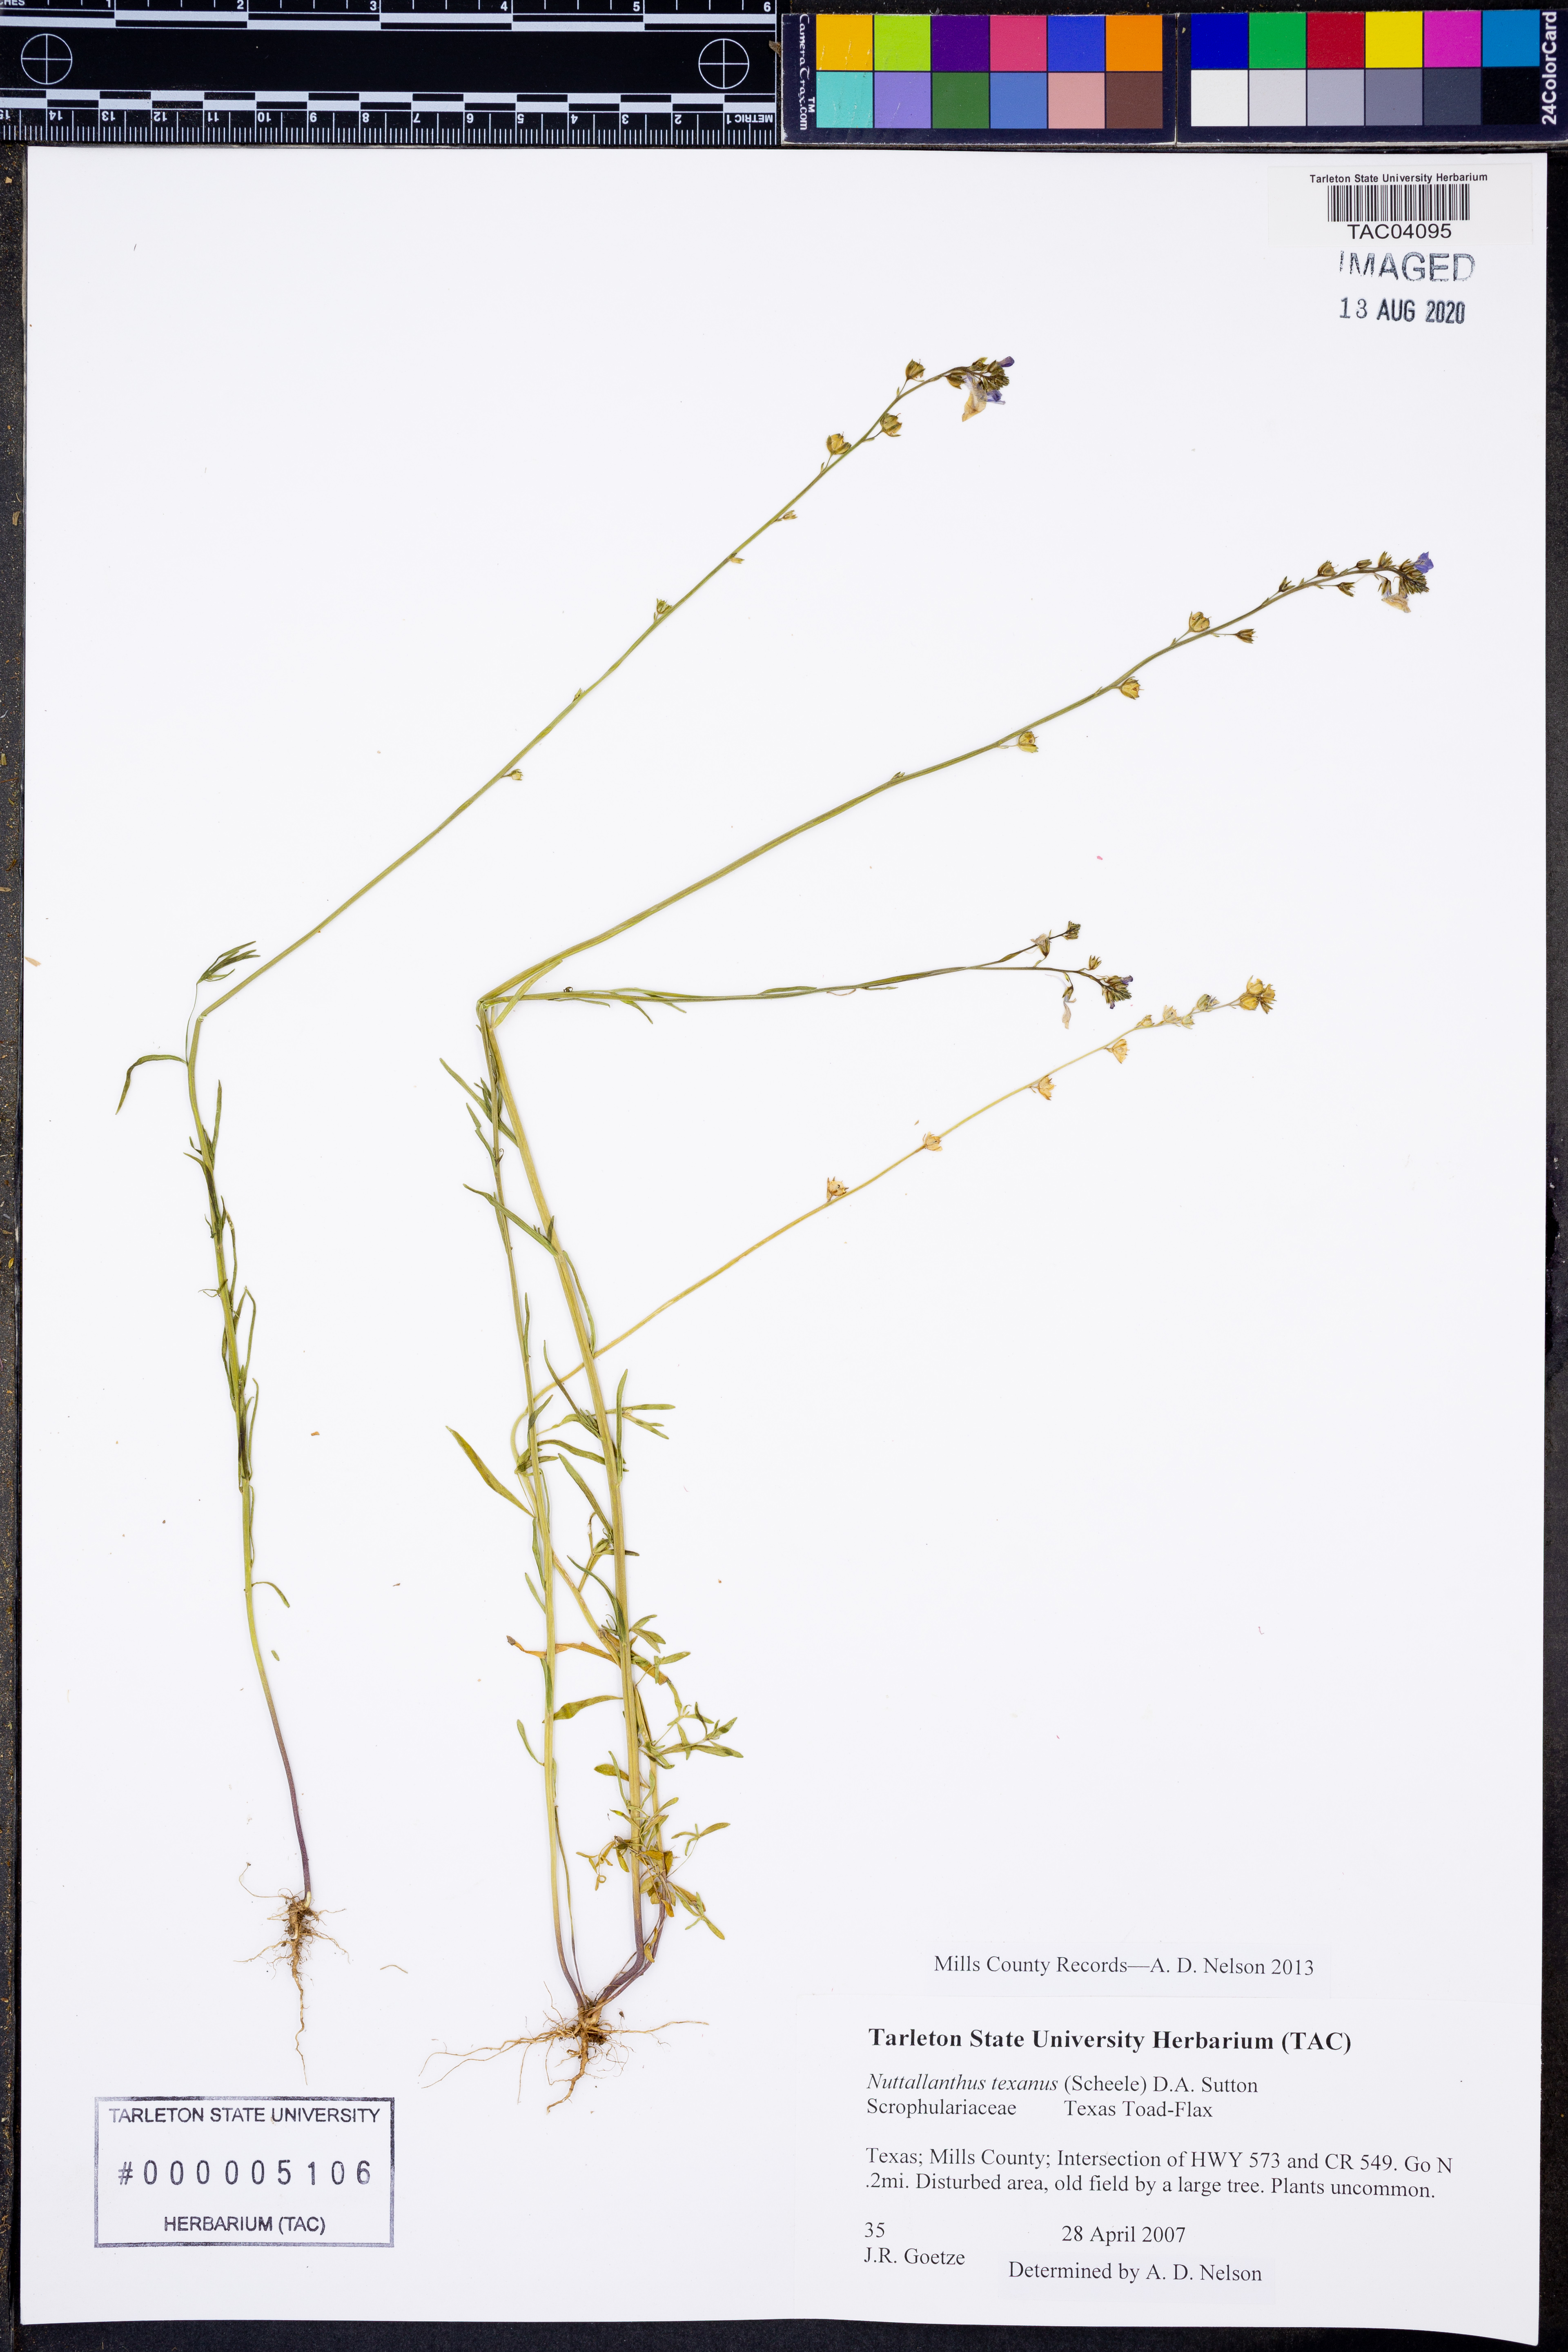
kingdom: Plantae
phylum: Tracheophyta
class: Magnoliopsida
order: Lamiales
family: Plantaginaceae
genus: Nuttallanthus
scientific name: Nuttallanthus texanus
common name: Texas toadflax
